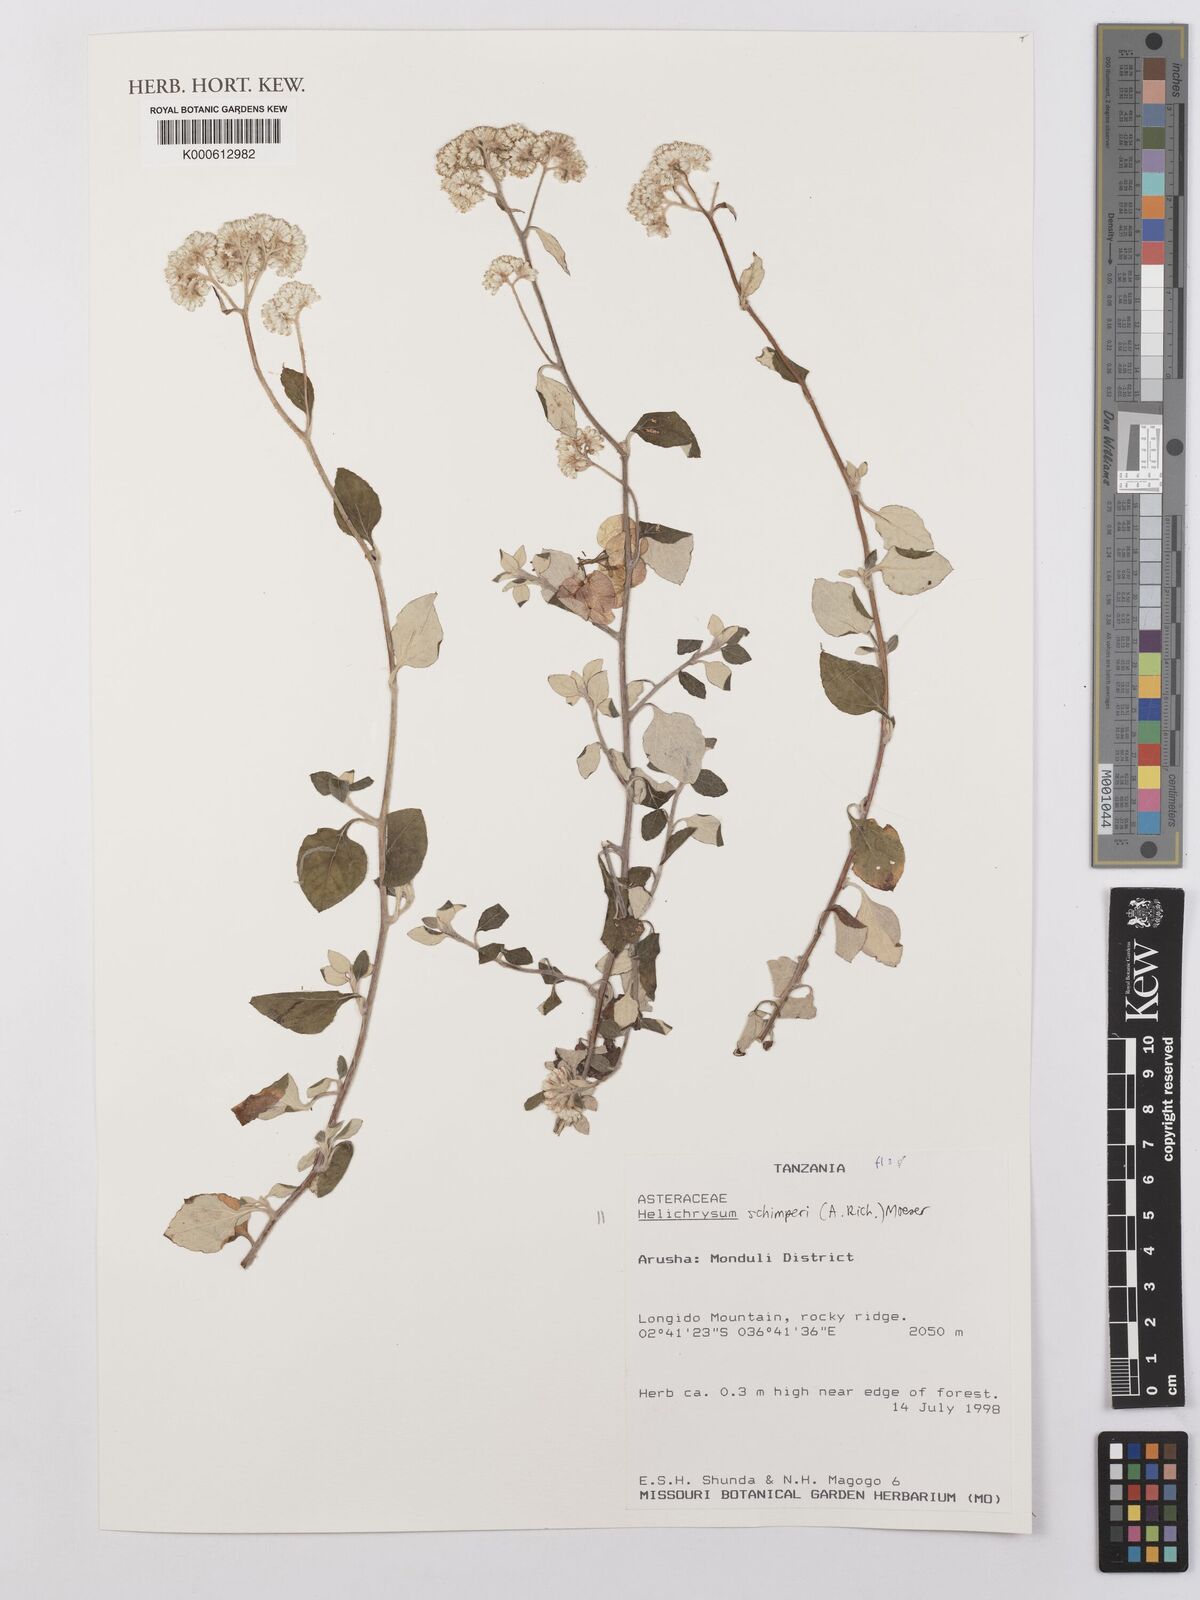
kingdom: Plantae
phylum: Tracheophyta
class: Magnoliopsida
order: Asterales
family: Asteraceae
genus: Helichrysum
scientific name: Helichrysum schimperi
